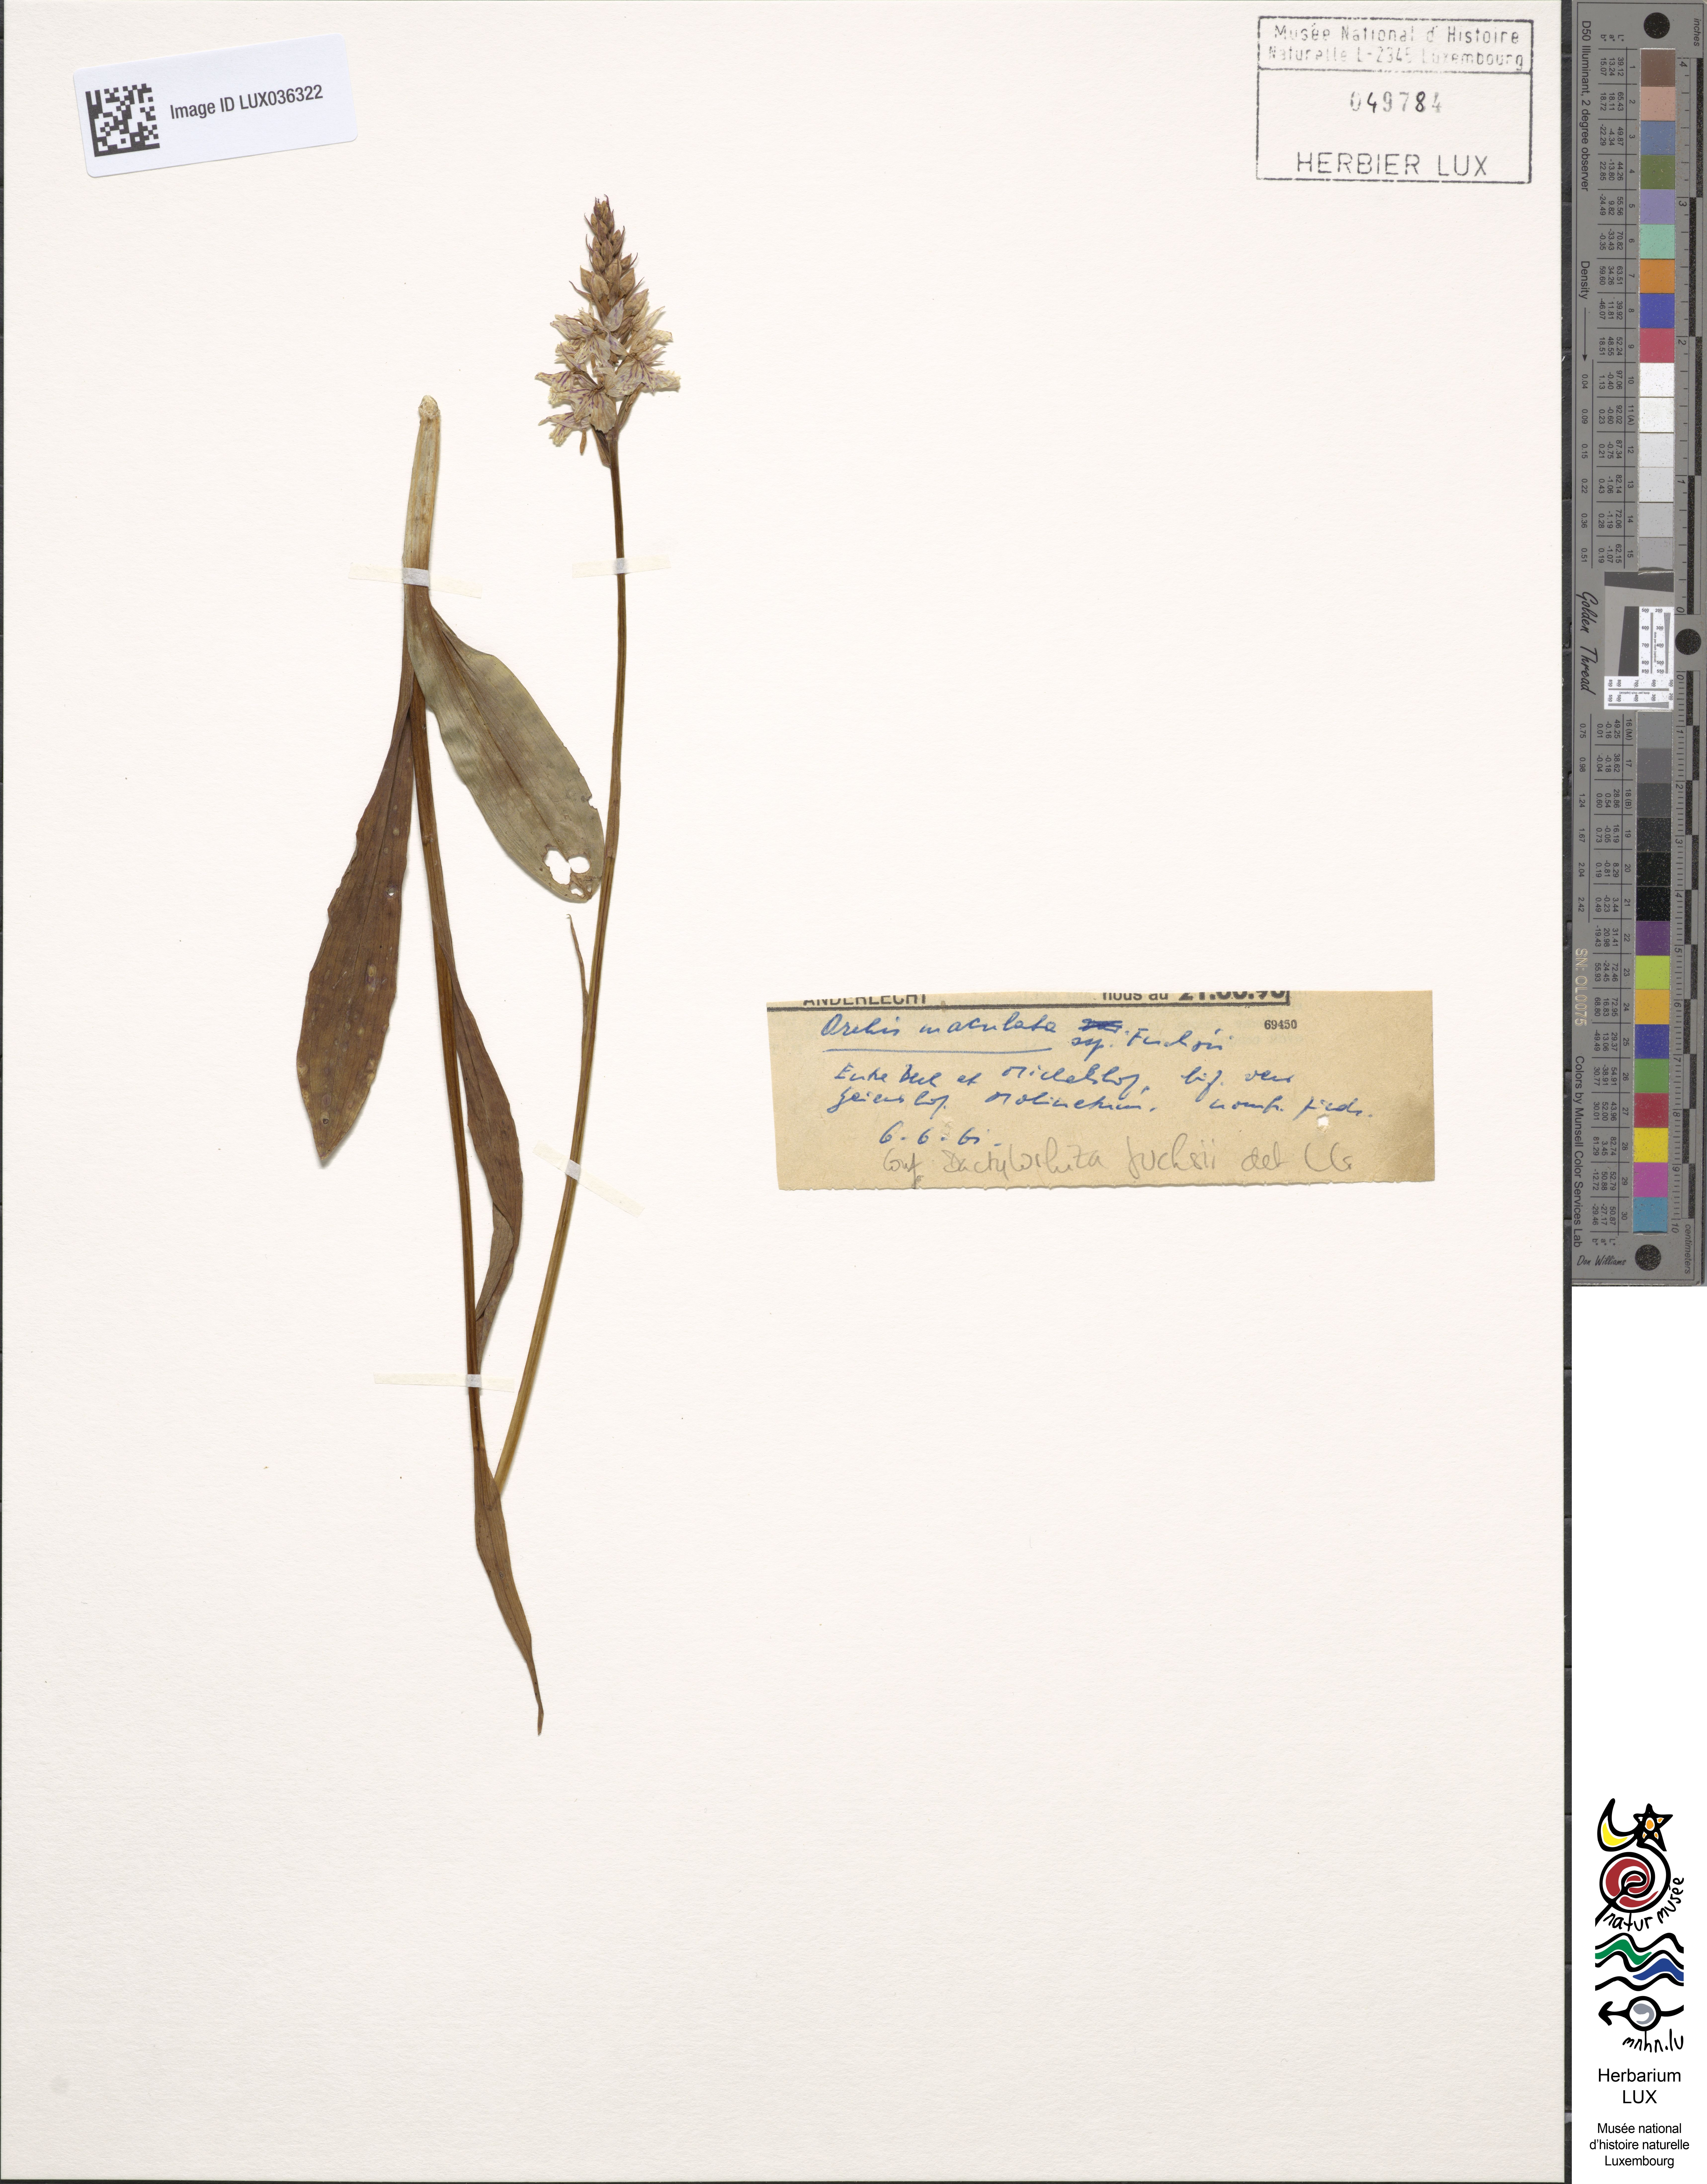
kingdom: Plantae
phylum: Tracheophyta
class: Liliopsida
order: Asparagales
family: Orchidaceae
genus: Dactylorhiza
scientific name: Dactylorhiza maculata
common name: Heath spotted-orchid
